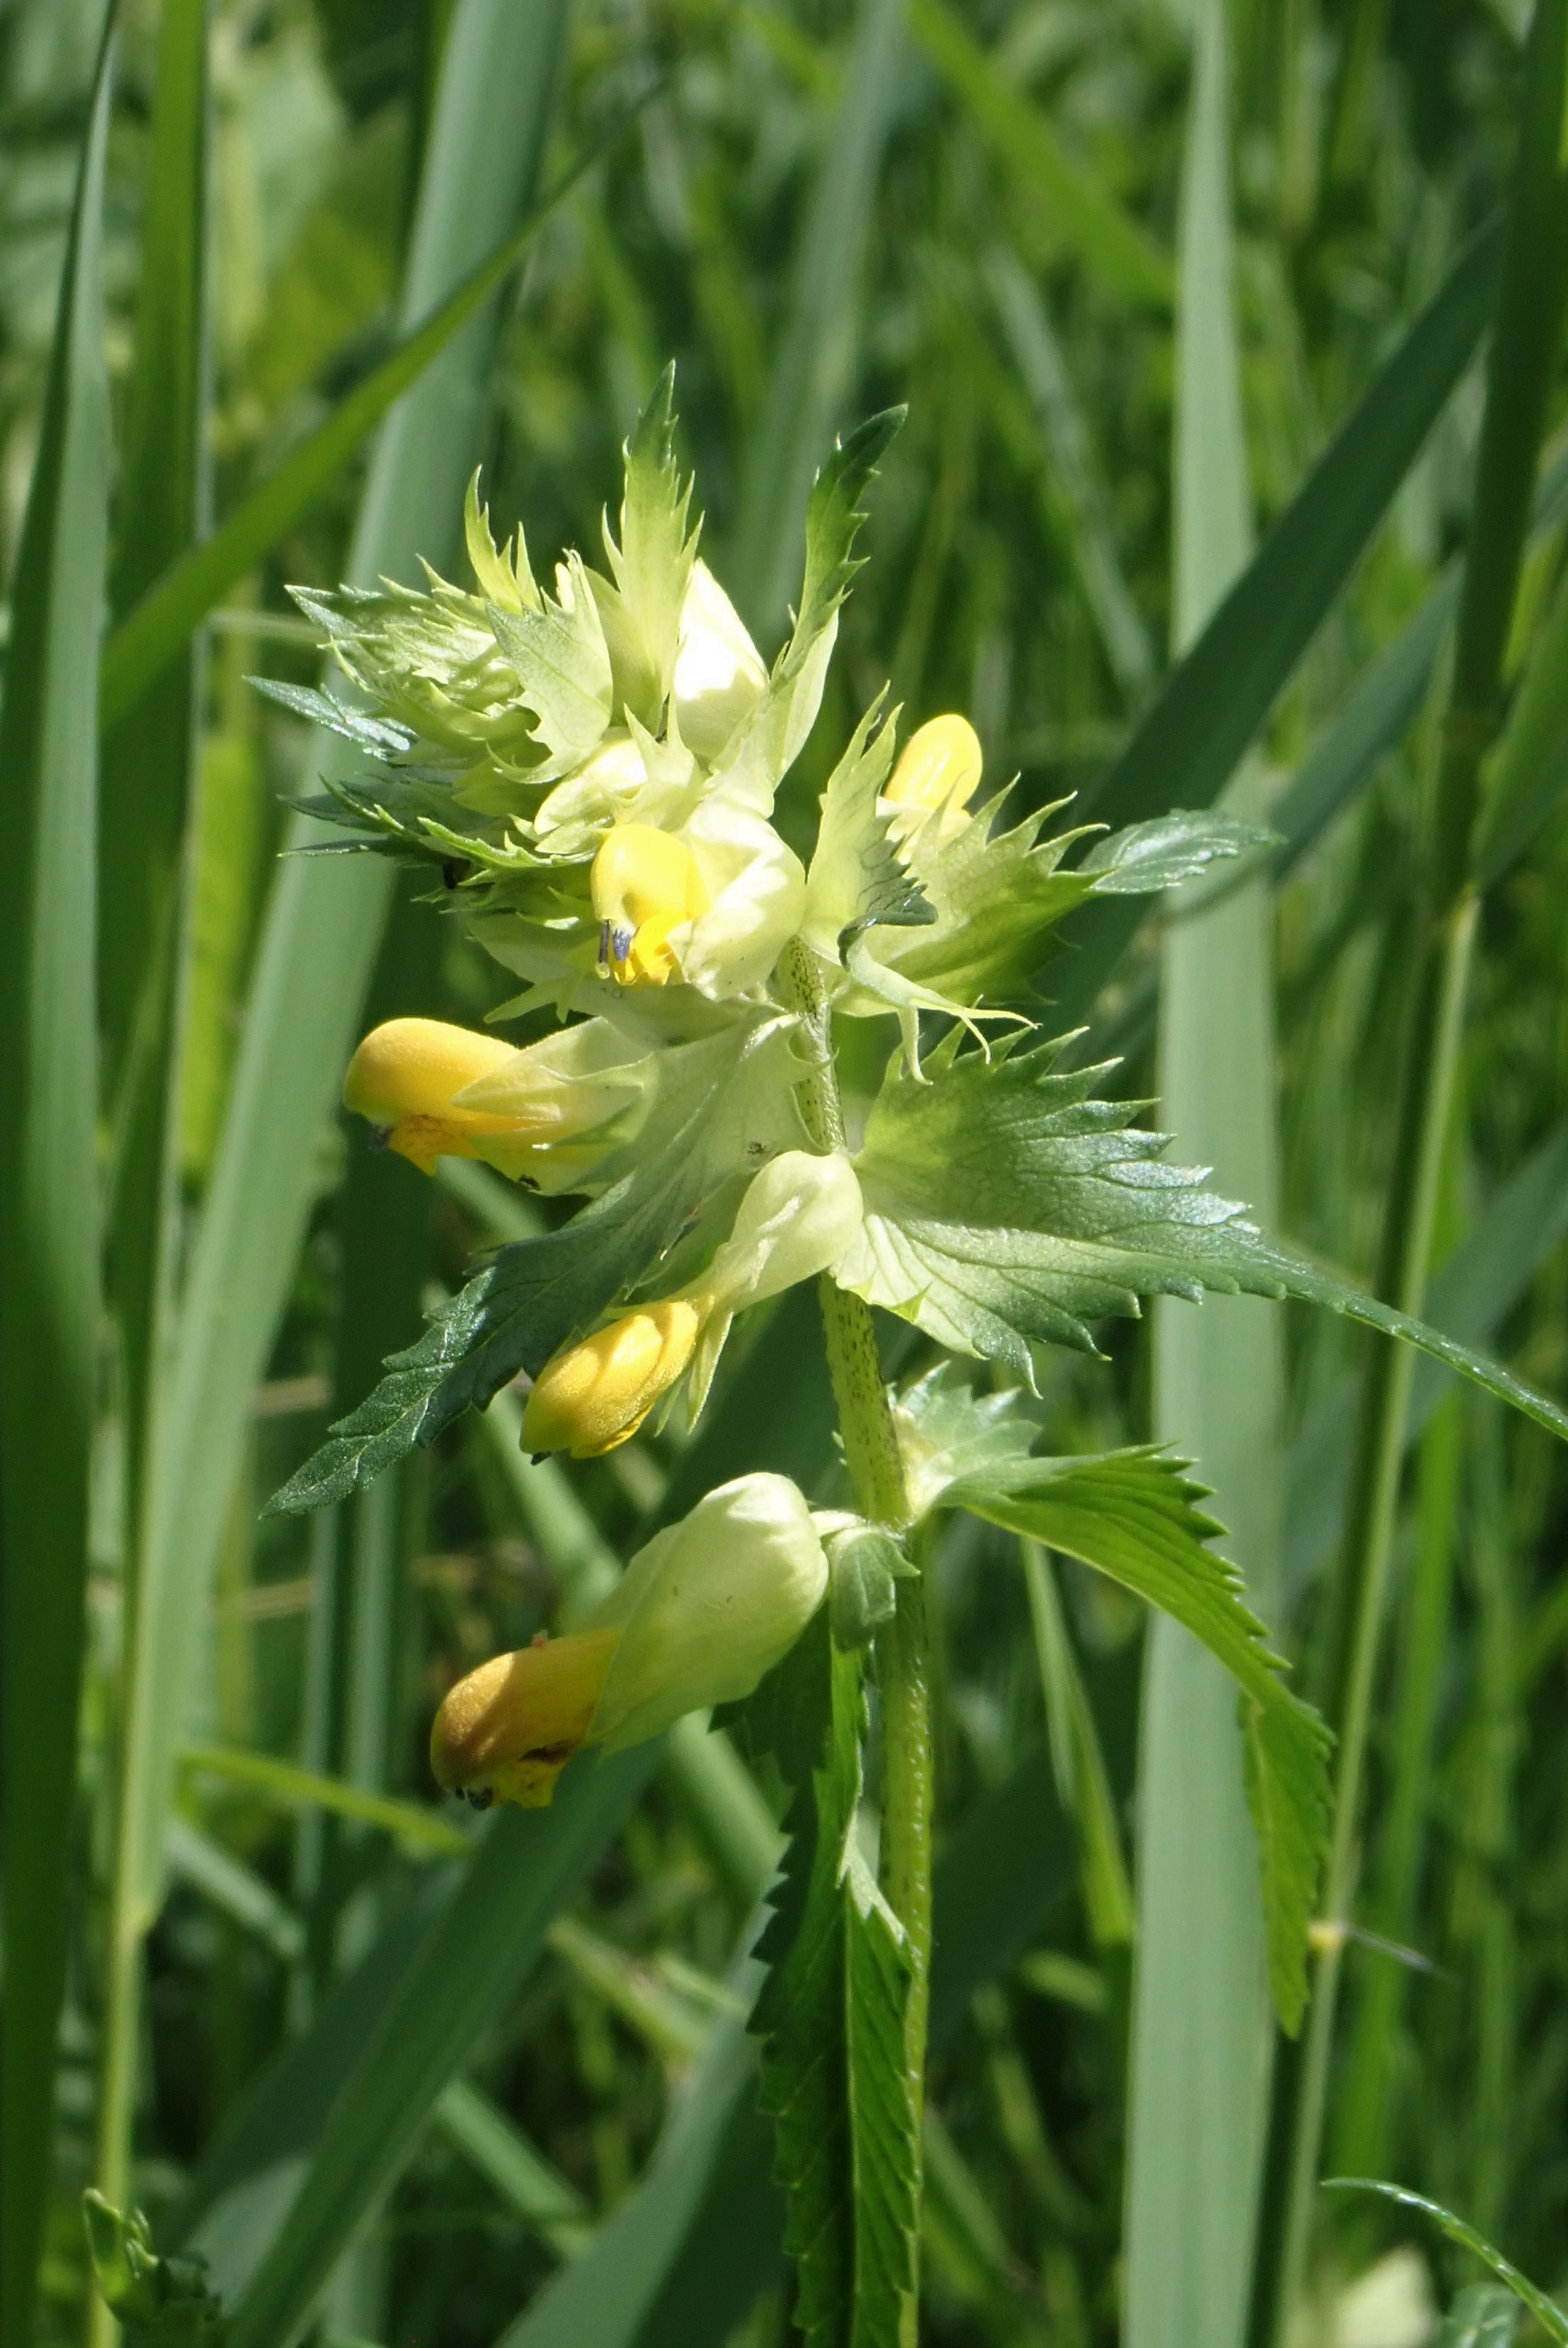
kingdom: Plantae
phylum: Tracheophyta
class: Magnoliopsida
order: Lamiales
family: Orobanchaceae
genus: Rhinanthus
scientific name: Rhinanthus
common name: Stor skjaller
